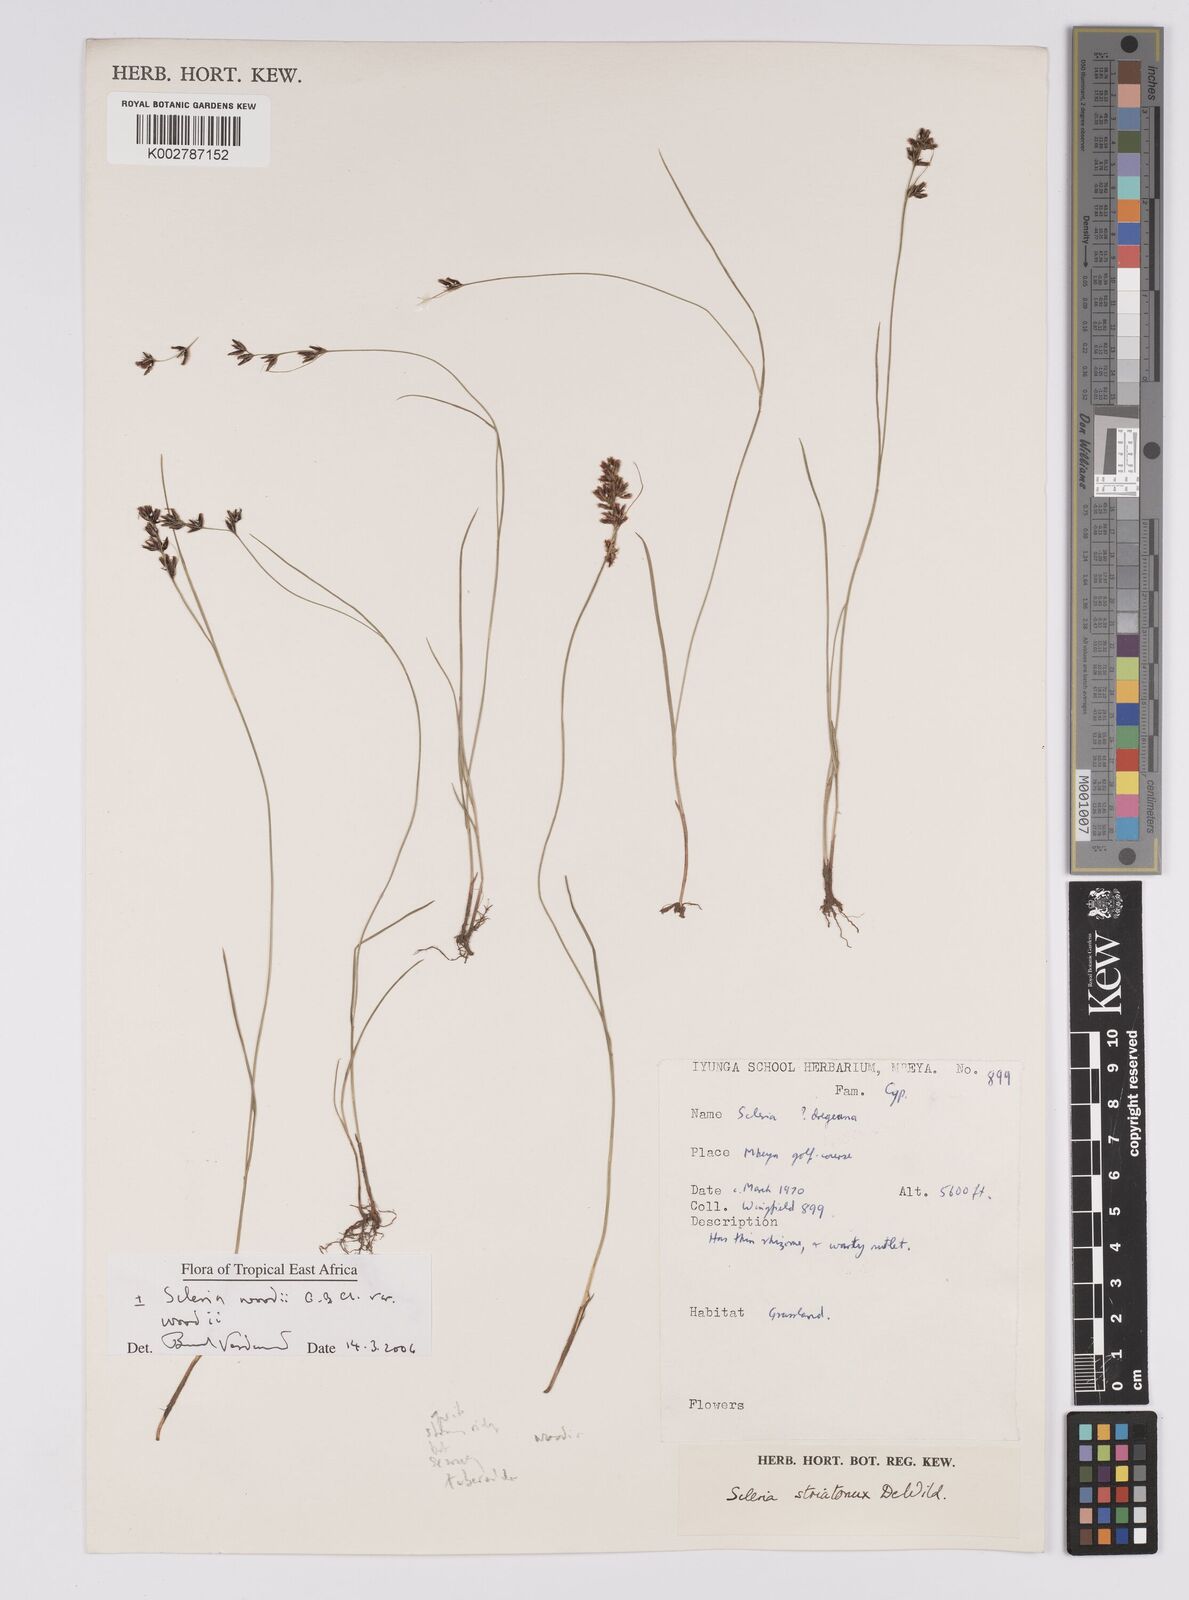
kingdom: Plantae
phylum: Tracheophyta
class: Liliopsida
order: Poales
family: Cyperaceae
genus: Scleria
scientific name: Scleria woodii
